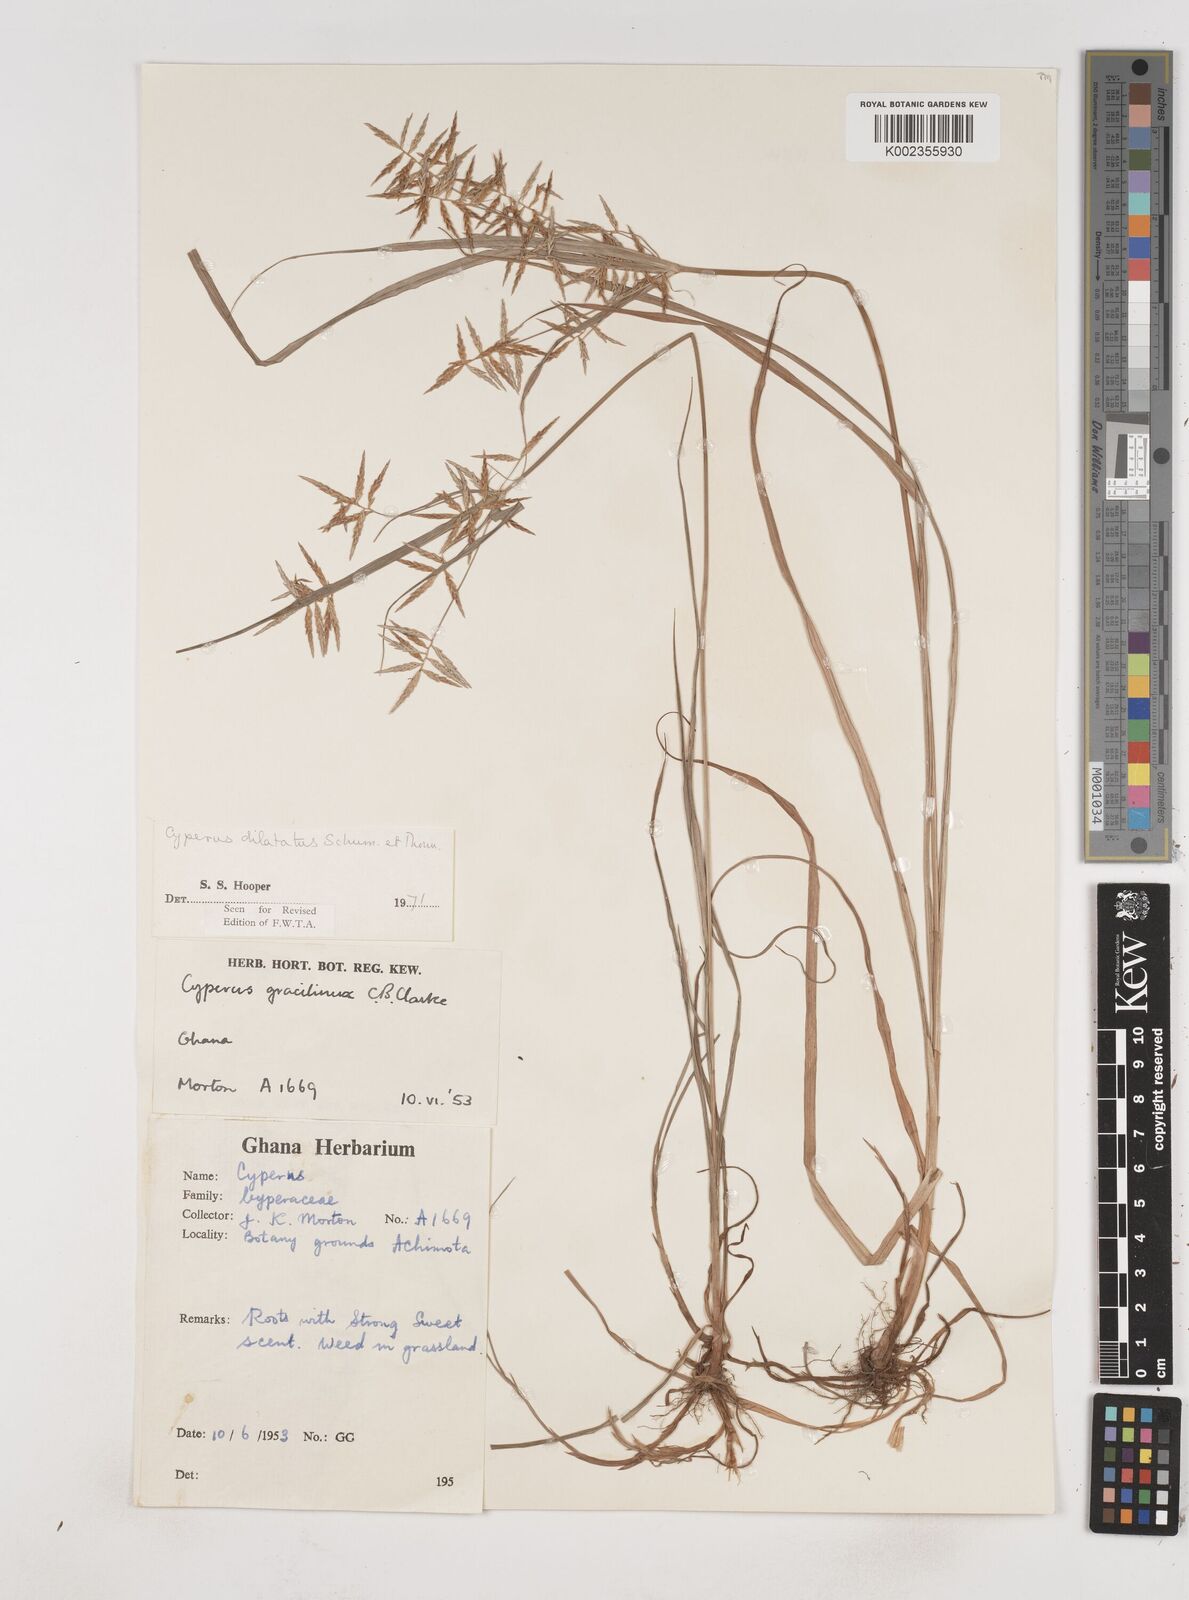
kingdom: Plantae
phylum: Tracheophyta
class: Liliopsida
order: Poales
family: Cyperaceae
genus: Cyperus
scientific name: Cyperus dilatatus
